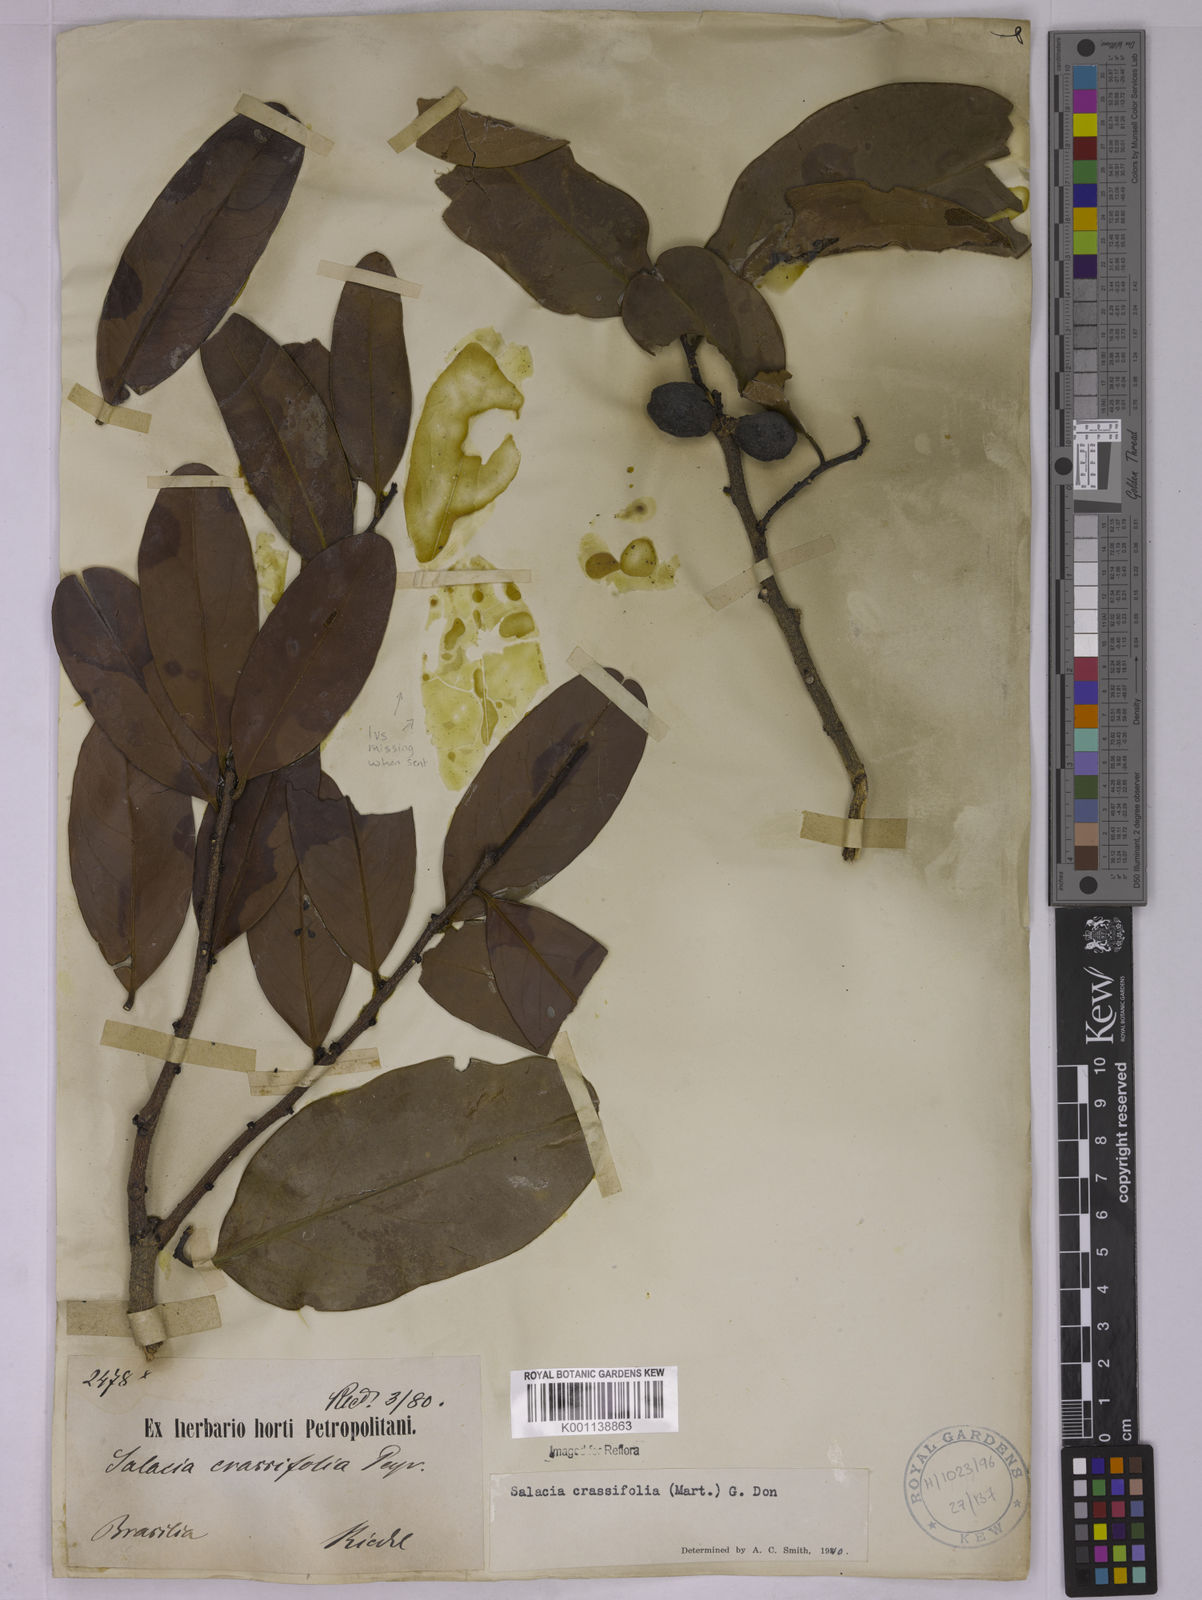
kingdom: Plantae
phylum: Tracheophyta
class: Magnoliopsida
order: Celastrales
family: Celastraceae
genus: Salacia
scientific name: Salacia crassifolia
